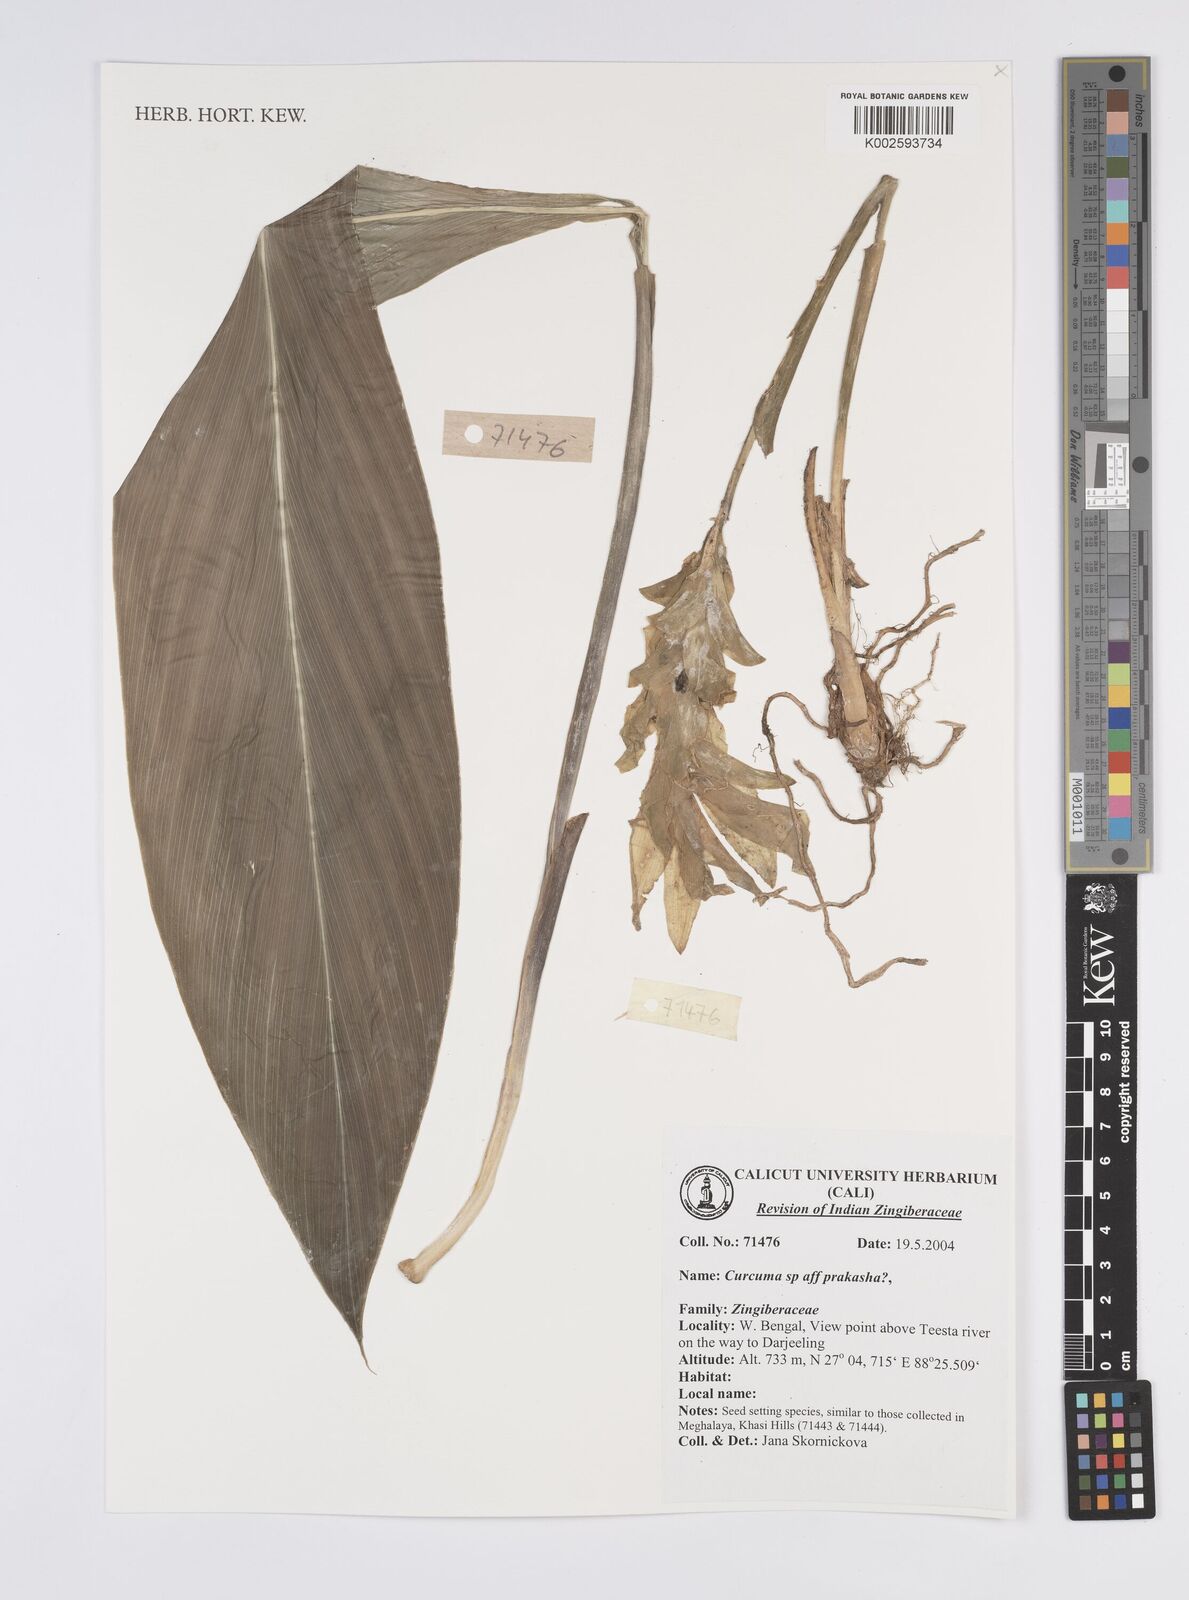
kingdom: Plantae
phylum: Tracheophyta
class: Liliopsida
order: Zingiberales
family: Zingiberaceae
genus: Curcuma
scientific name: Curcuma prakasha
